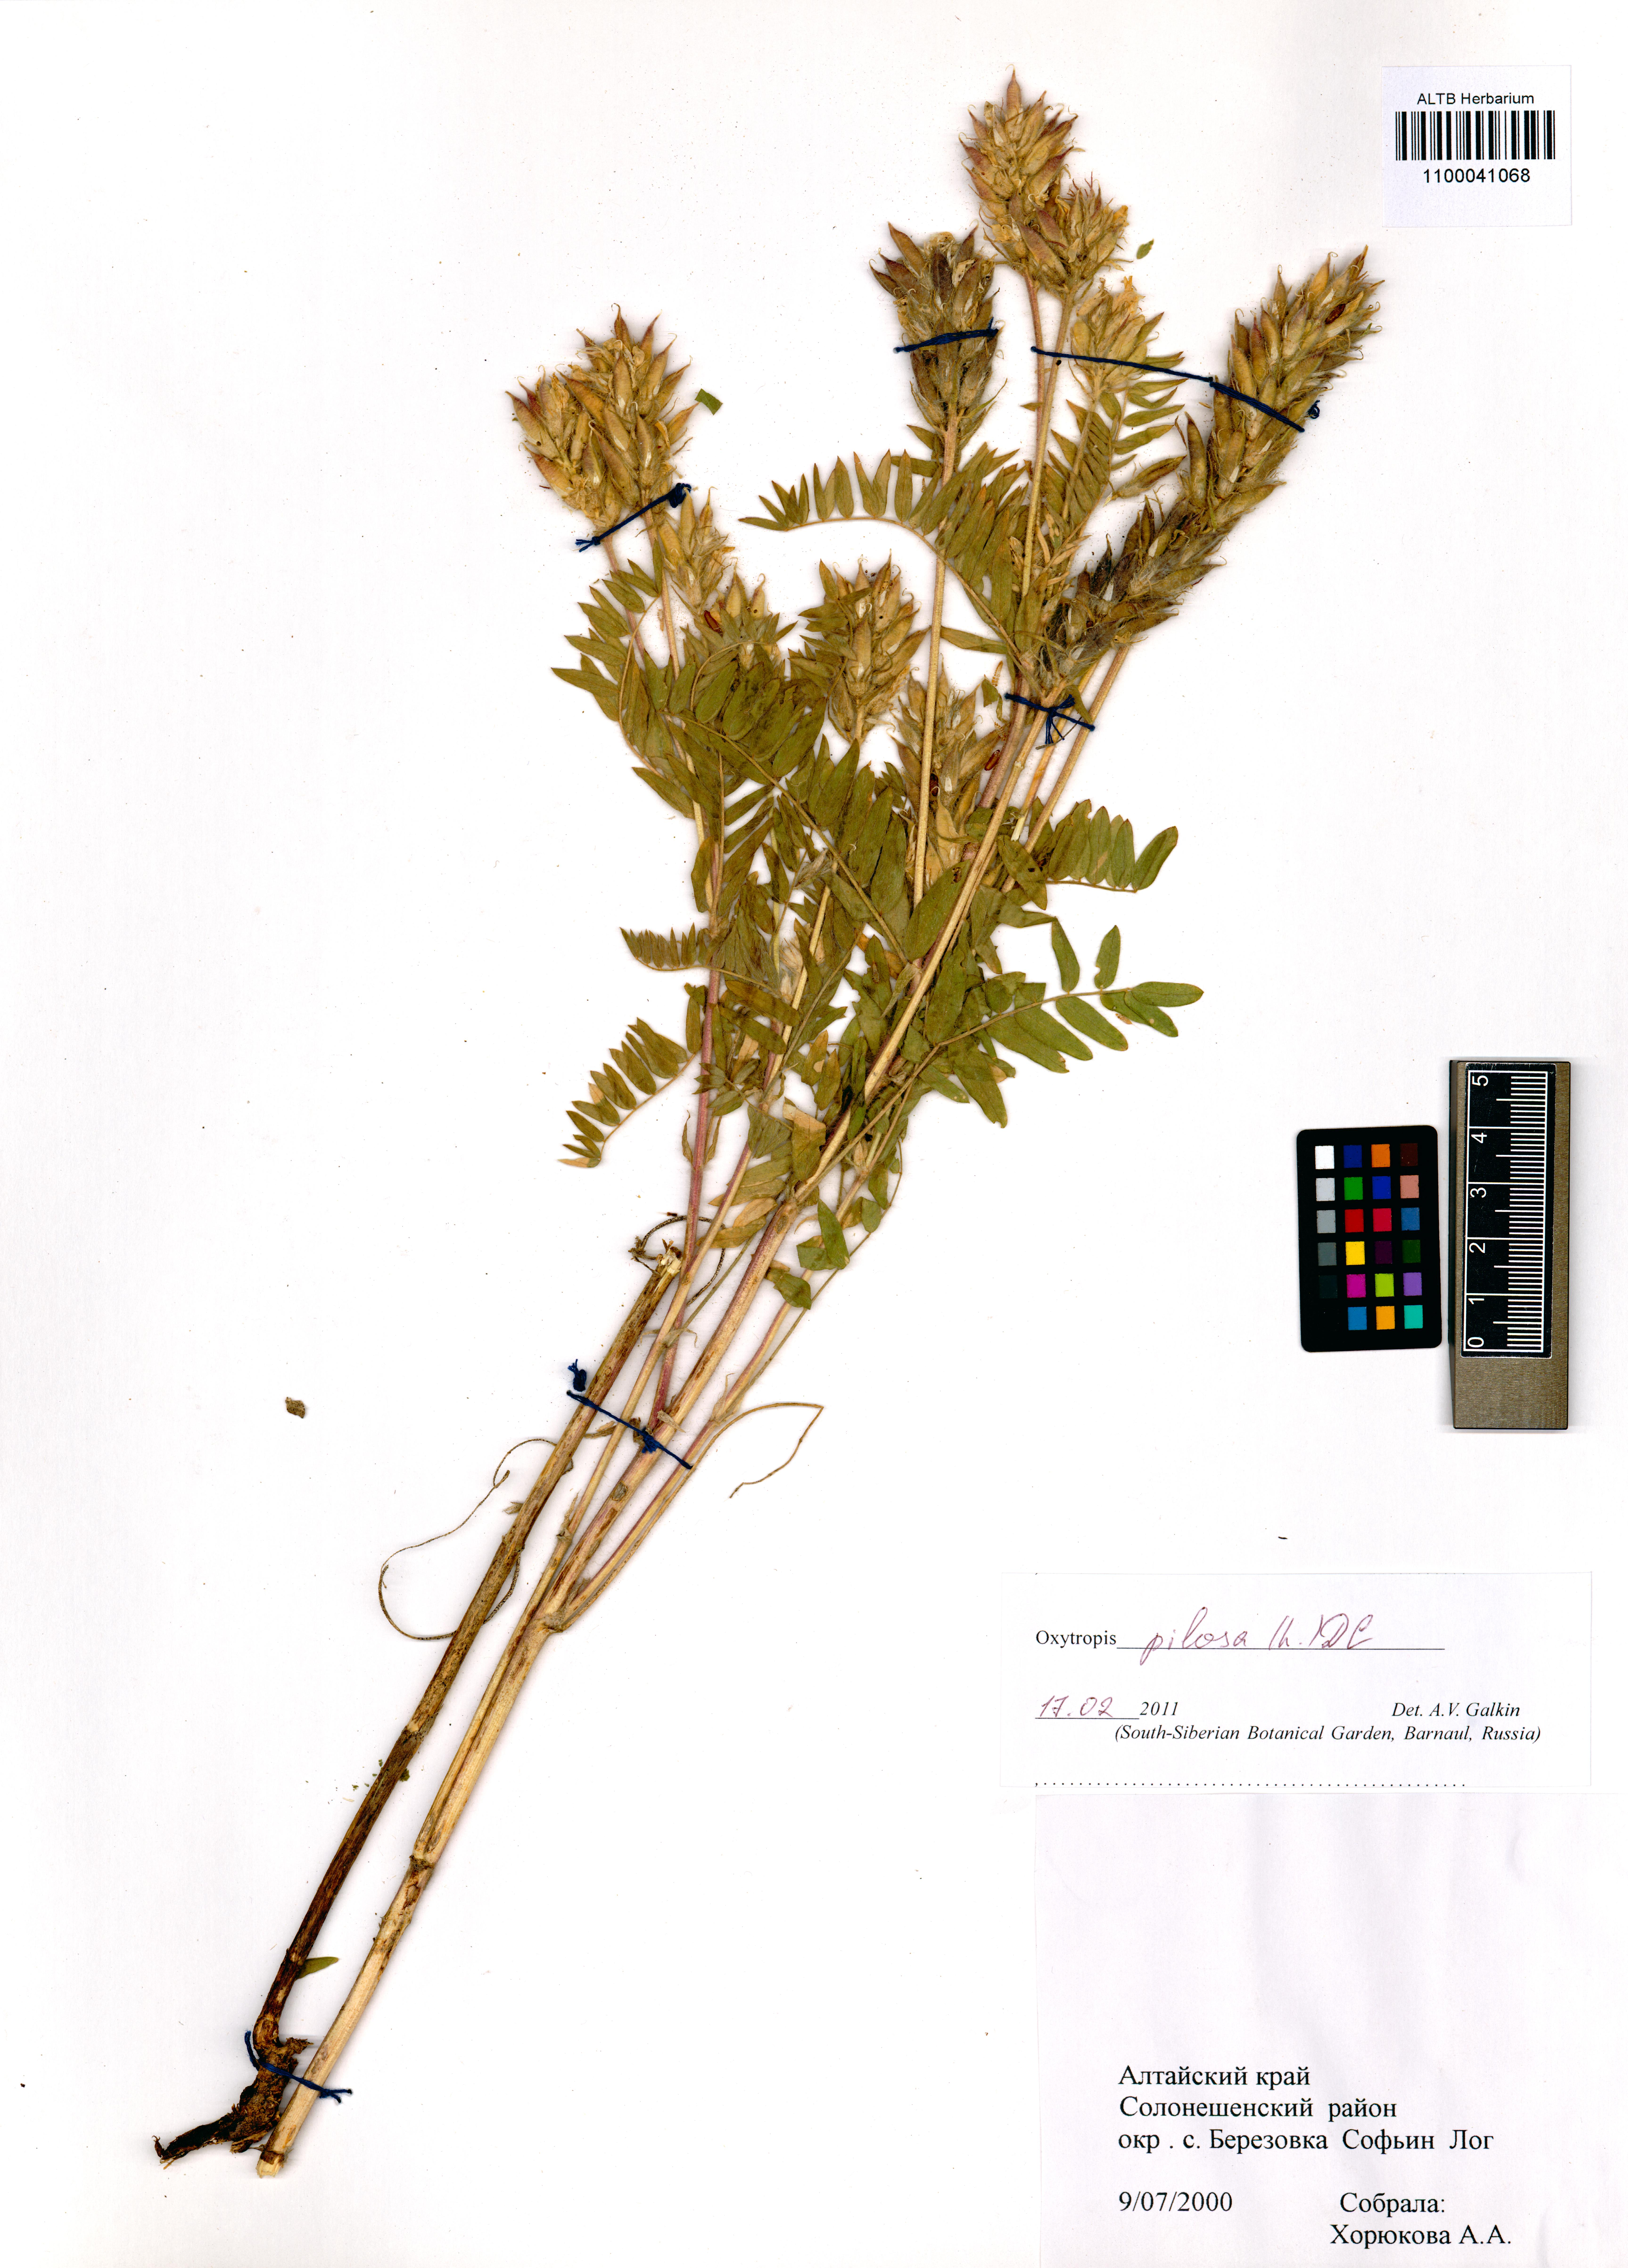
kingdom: Plantae
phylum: Tracheophyta
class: Magnoliopsida
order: Fabales
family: Fabaceae
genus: Oxytropis
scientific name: Oxytropis pilosa
